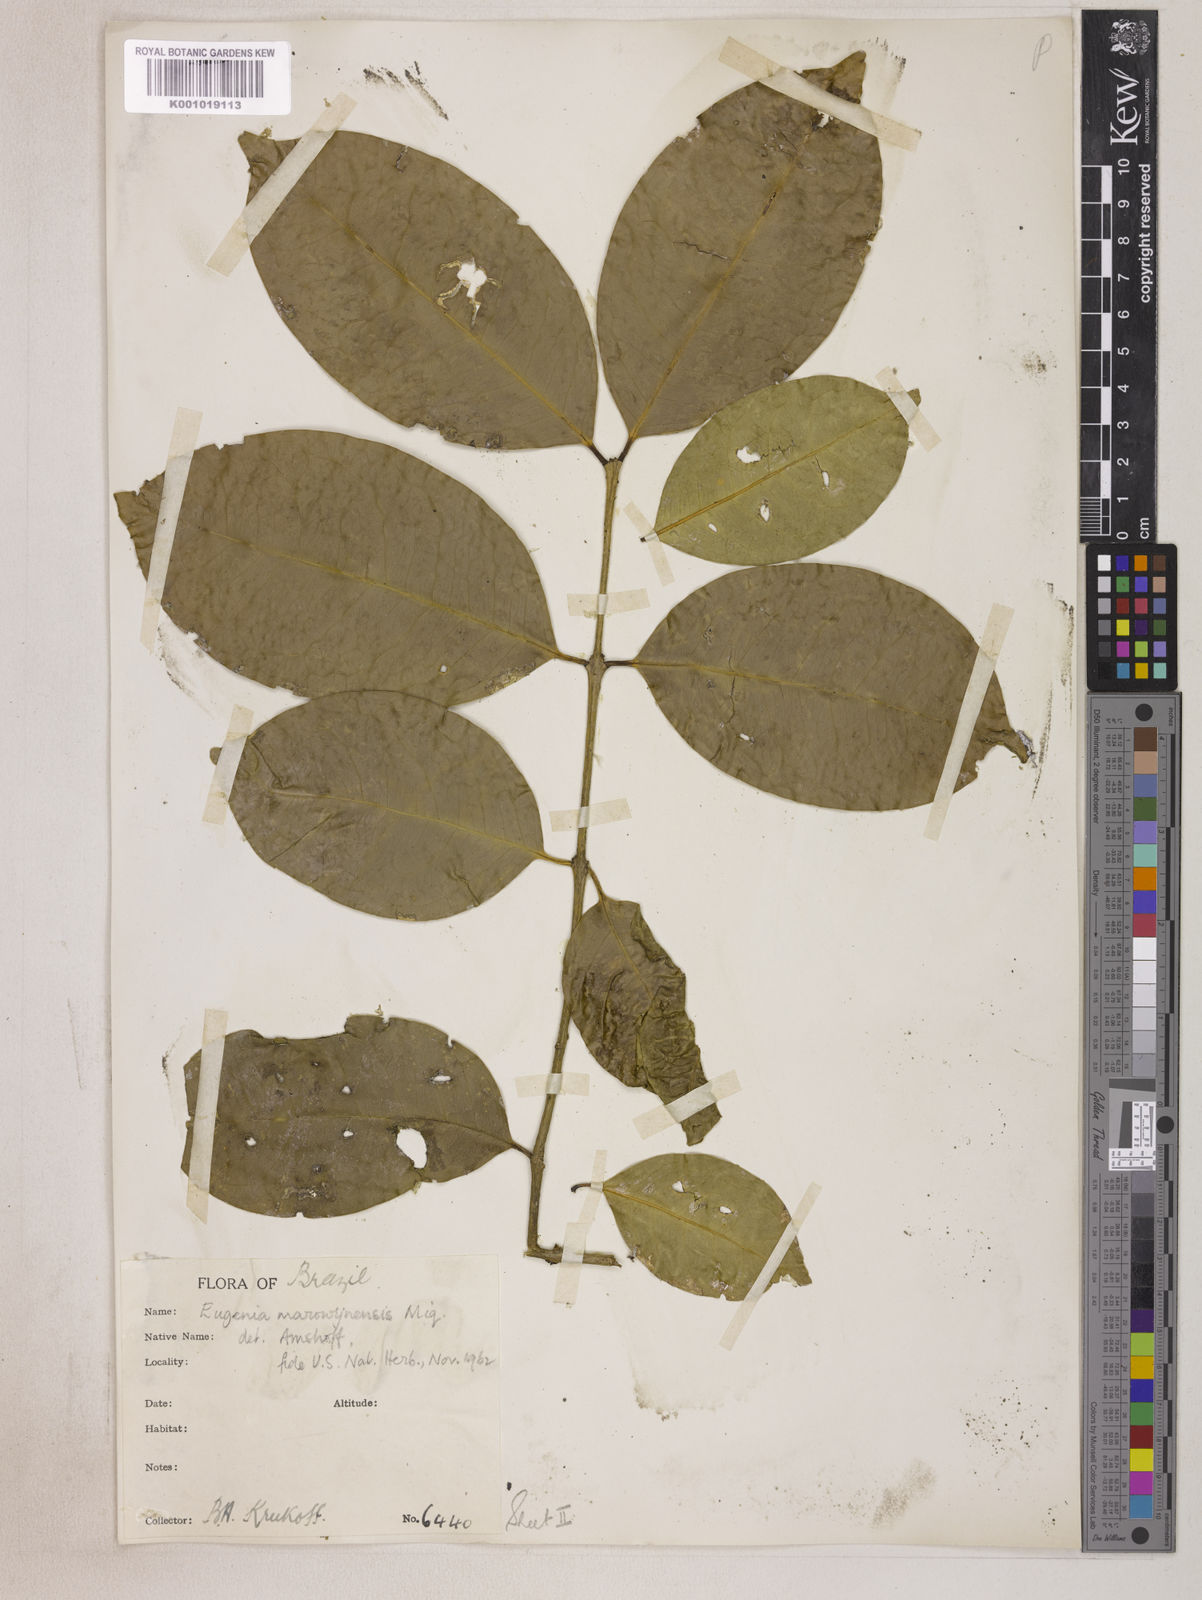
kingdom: Plantae
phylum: Tracheophyta
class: Magnoliopsida
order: Myrtales
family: Myrtaceae
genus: Eugenia
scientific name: Eugenia marowynensis
